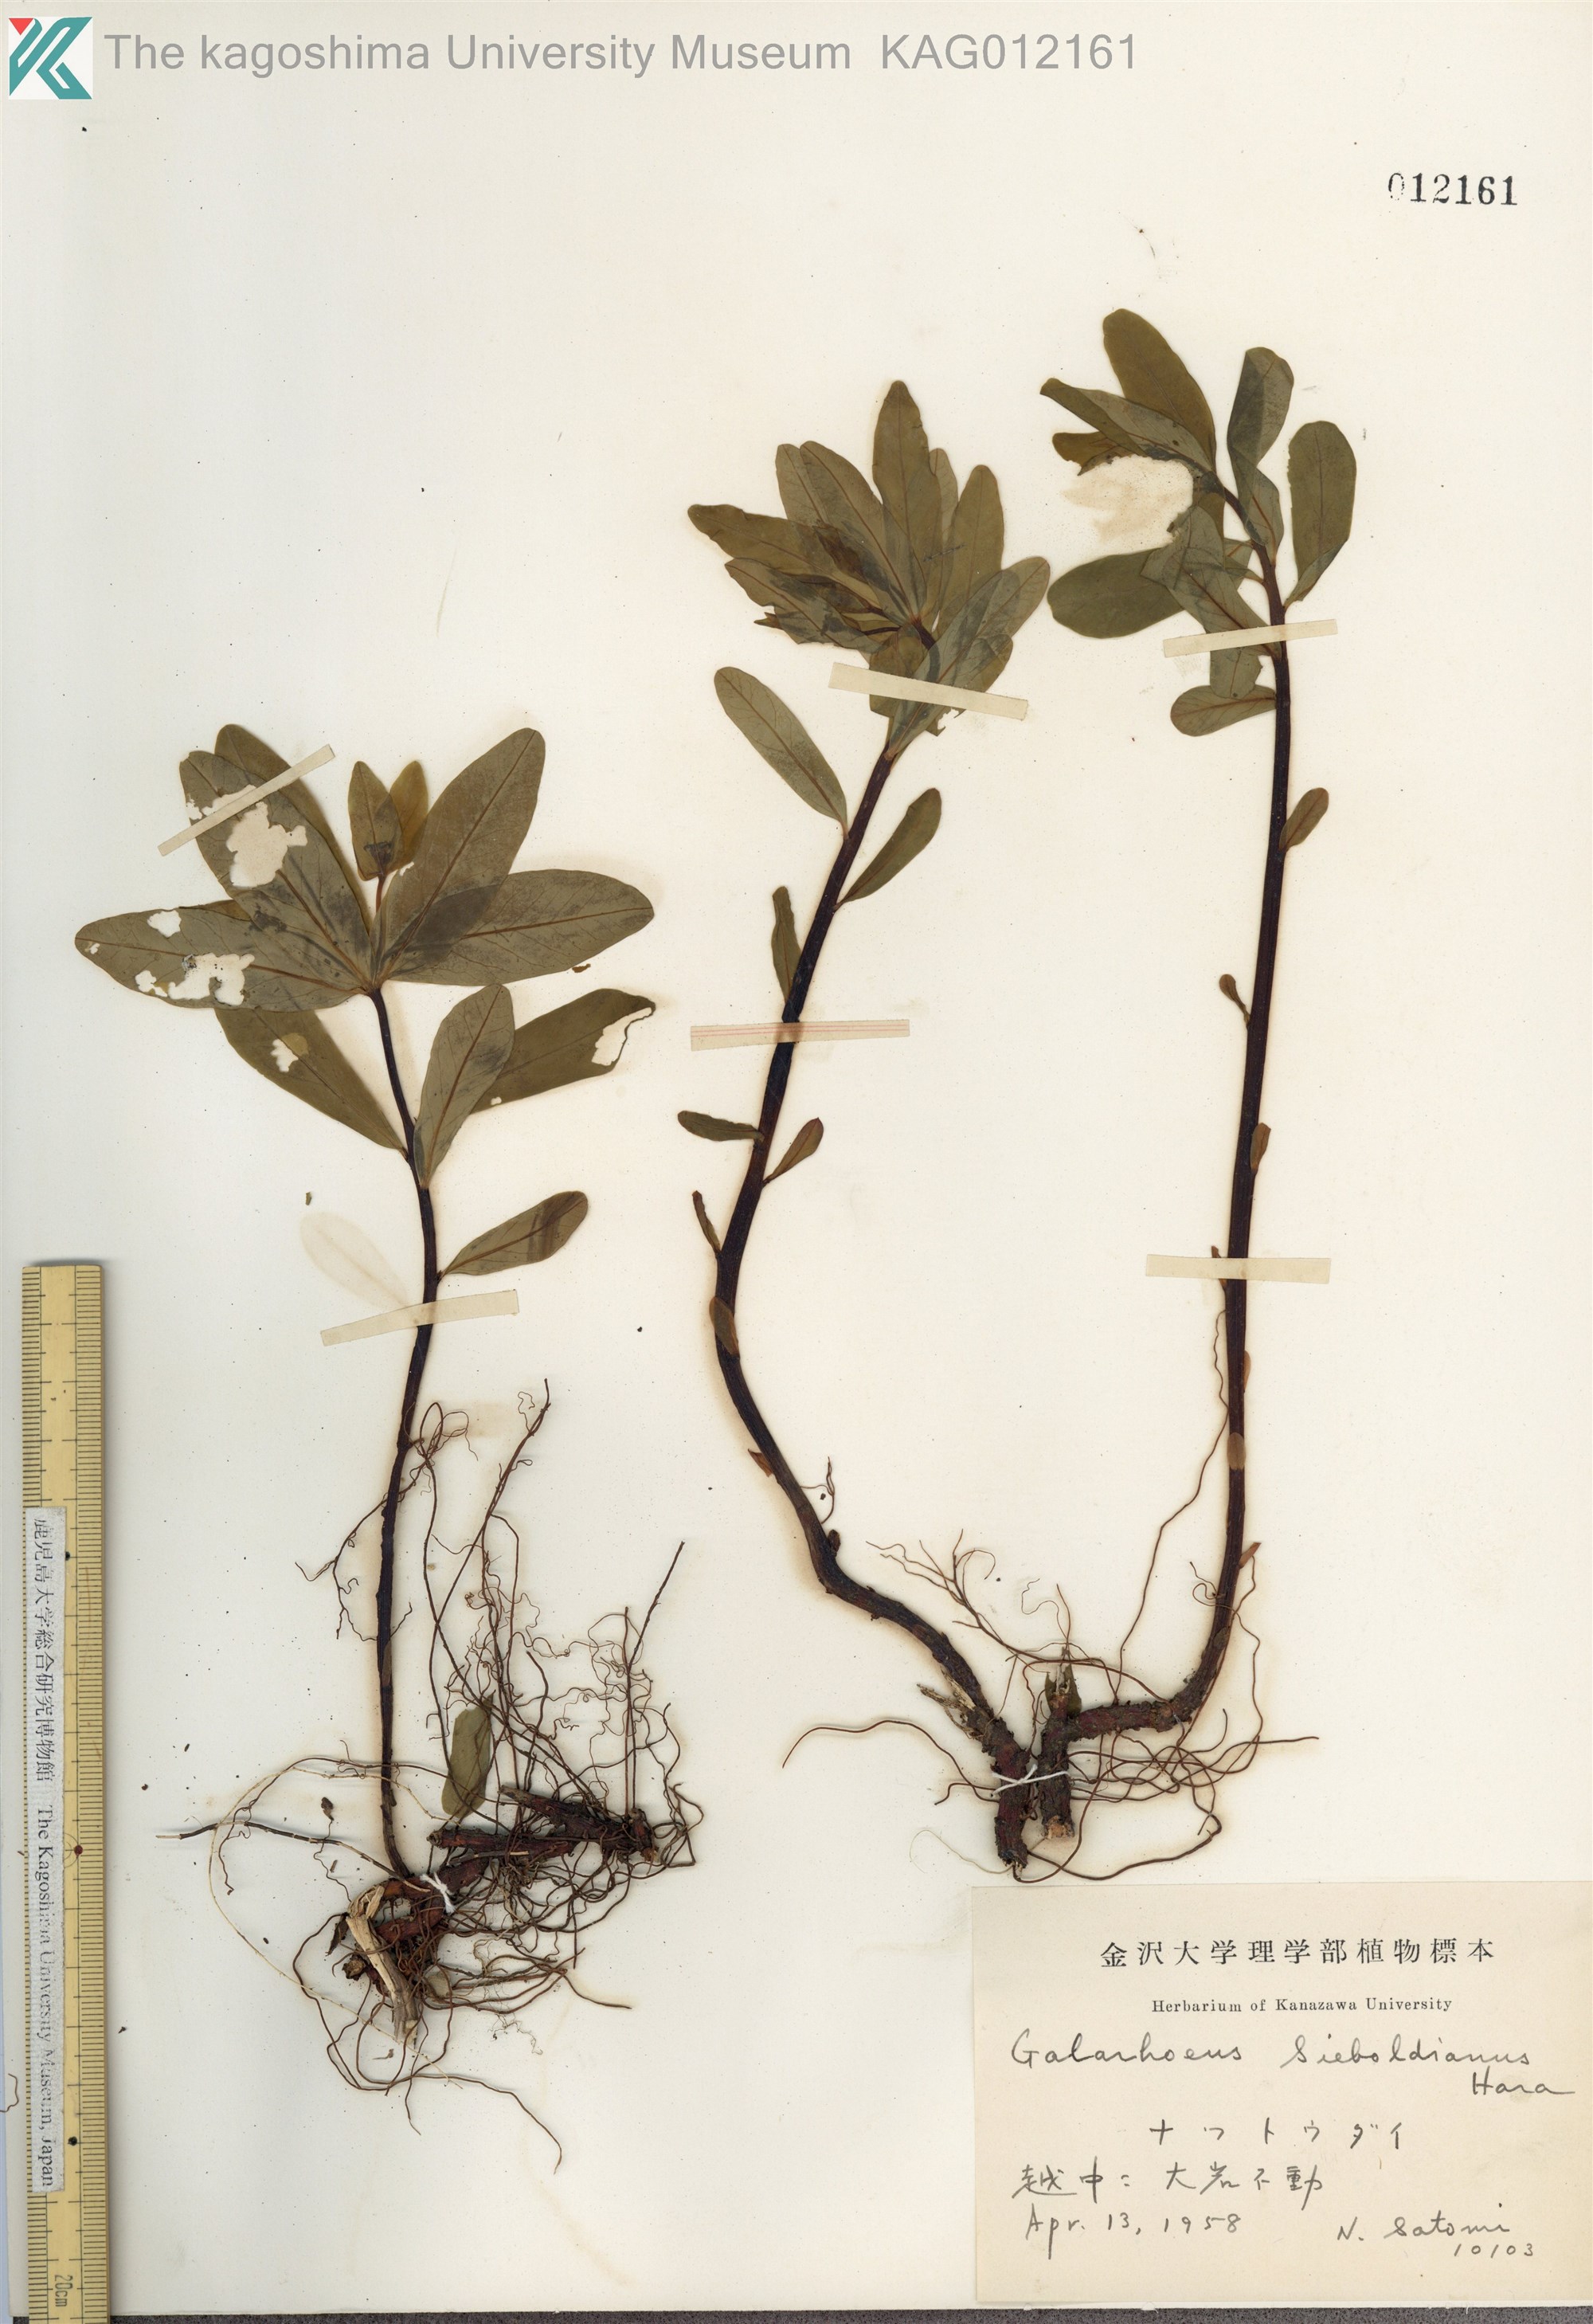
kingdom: Plantae
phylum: Tracheophyta
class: Magnoliopsida
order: Malpighiales
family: Euphorbiaceae
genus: Euphorbia
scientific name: Euphorbia sieboldiana
